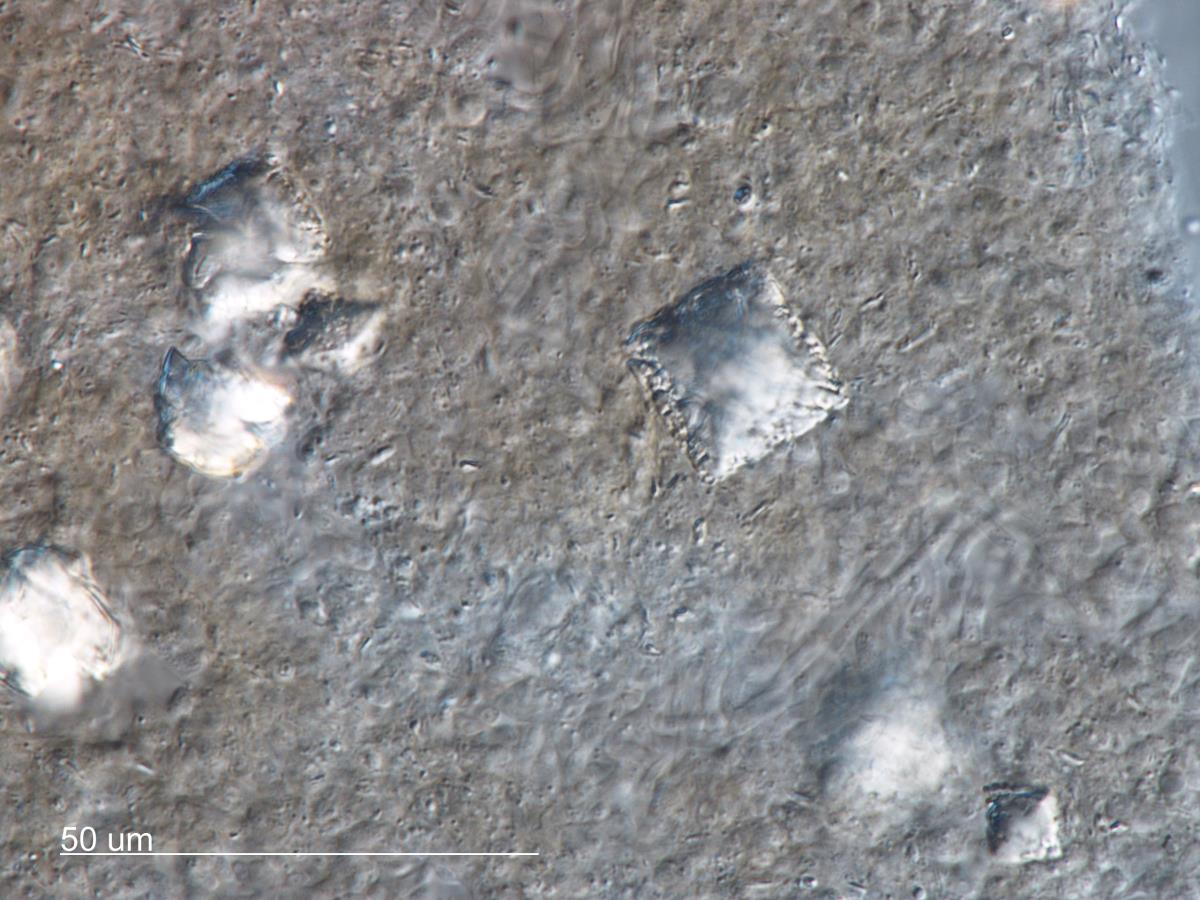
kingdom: Fungi
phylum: Basidiomycota
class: Agaricomycetes
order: Agaricales
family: Pleurotaceae
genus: Resupinatus
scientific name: Resupinatus trichotis
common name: Hairy oysterling
